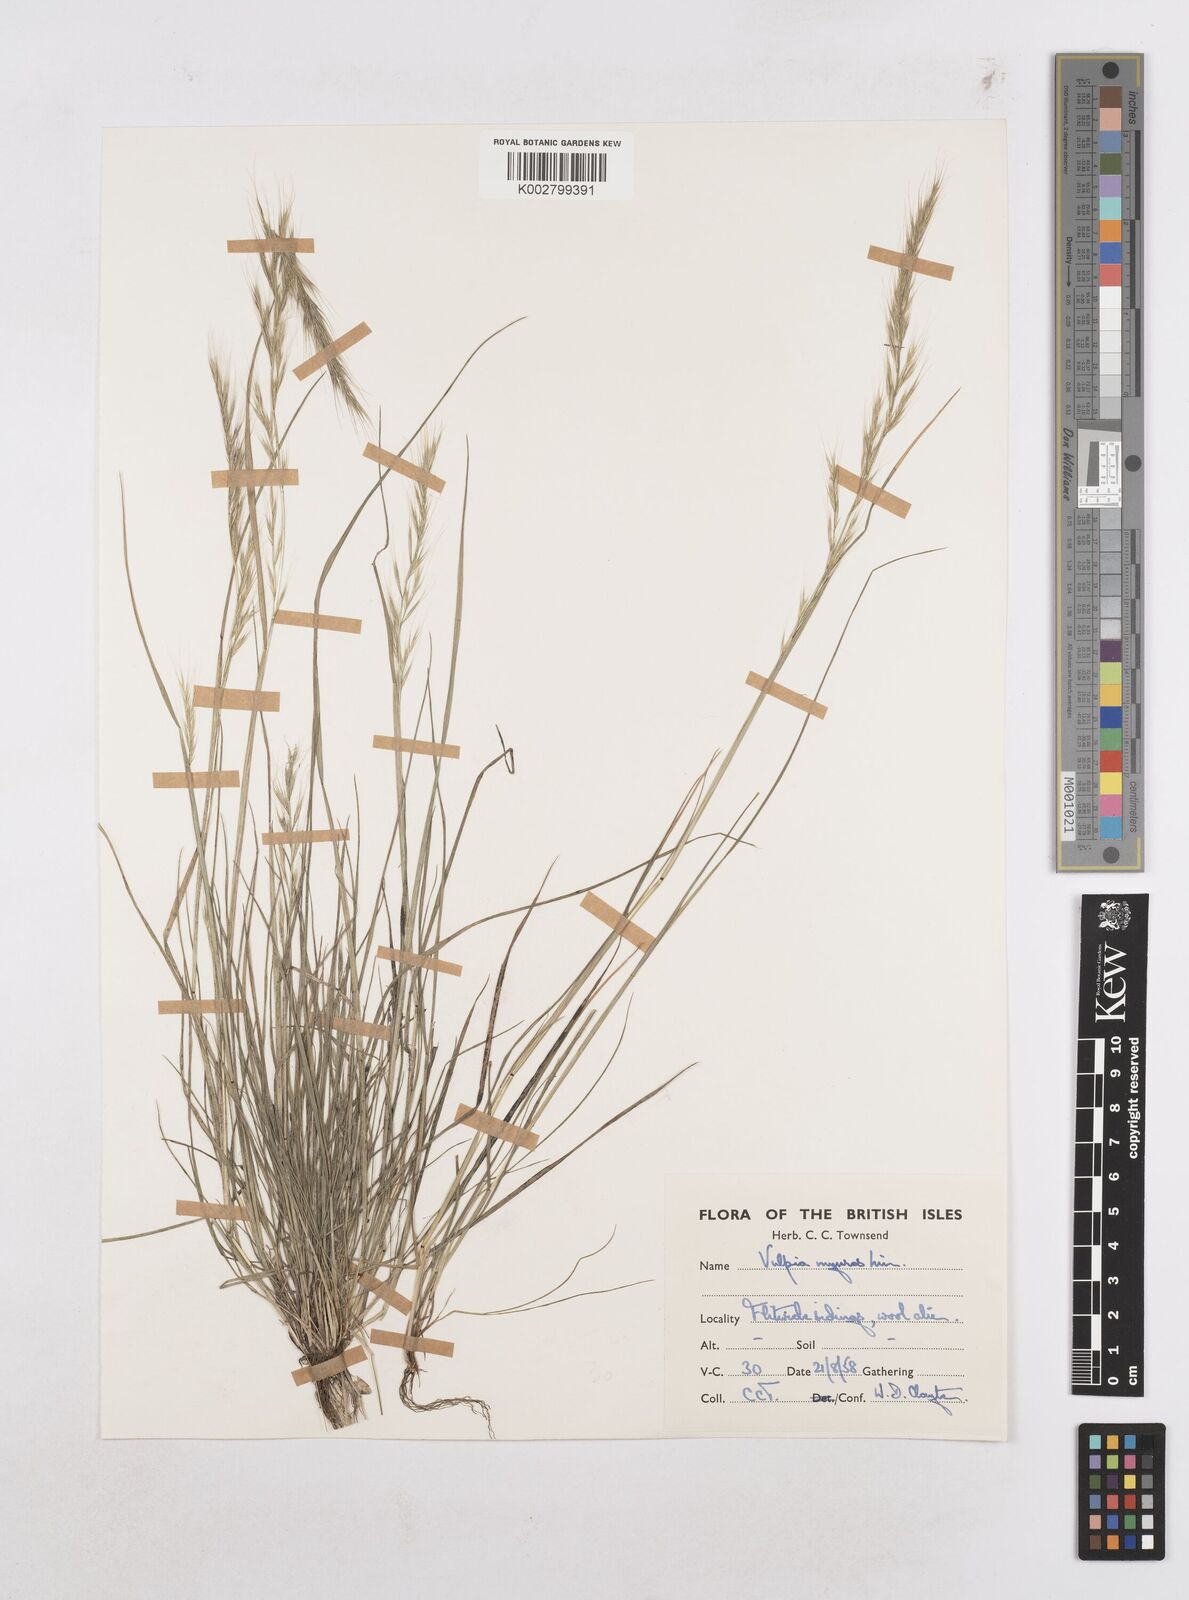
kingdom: Plantae
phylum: Tracheophyta
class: Liliopsida
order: Poales
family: Poaceae
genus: Festuca
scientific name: Festuca myuros
